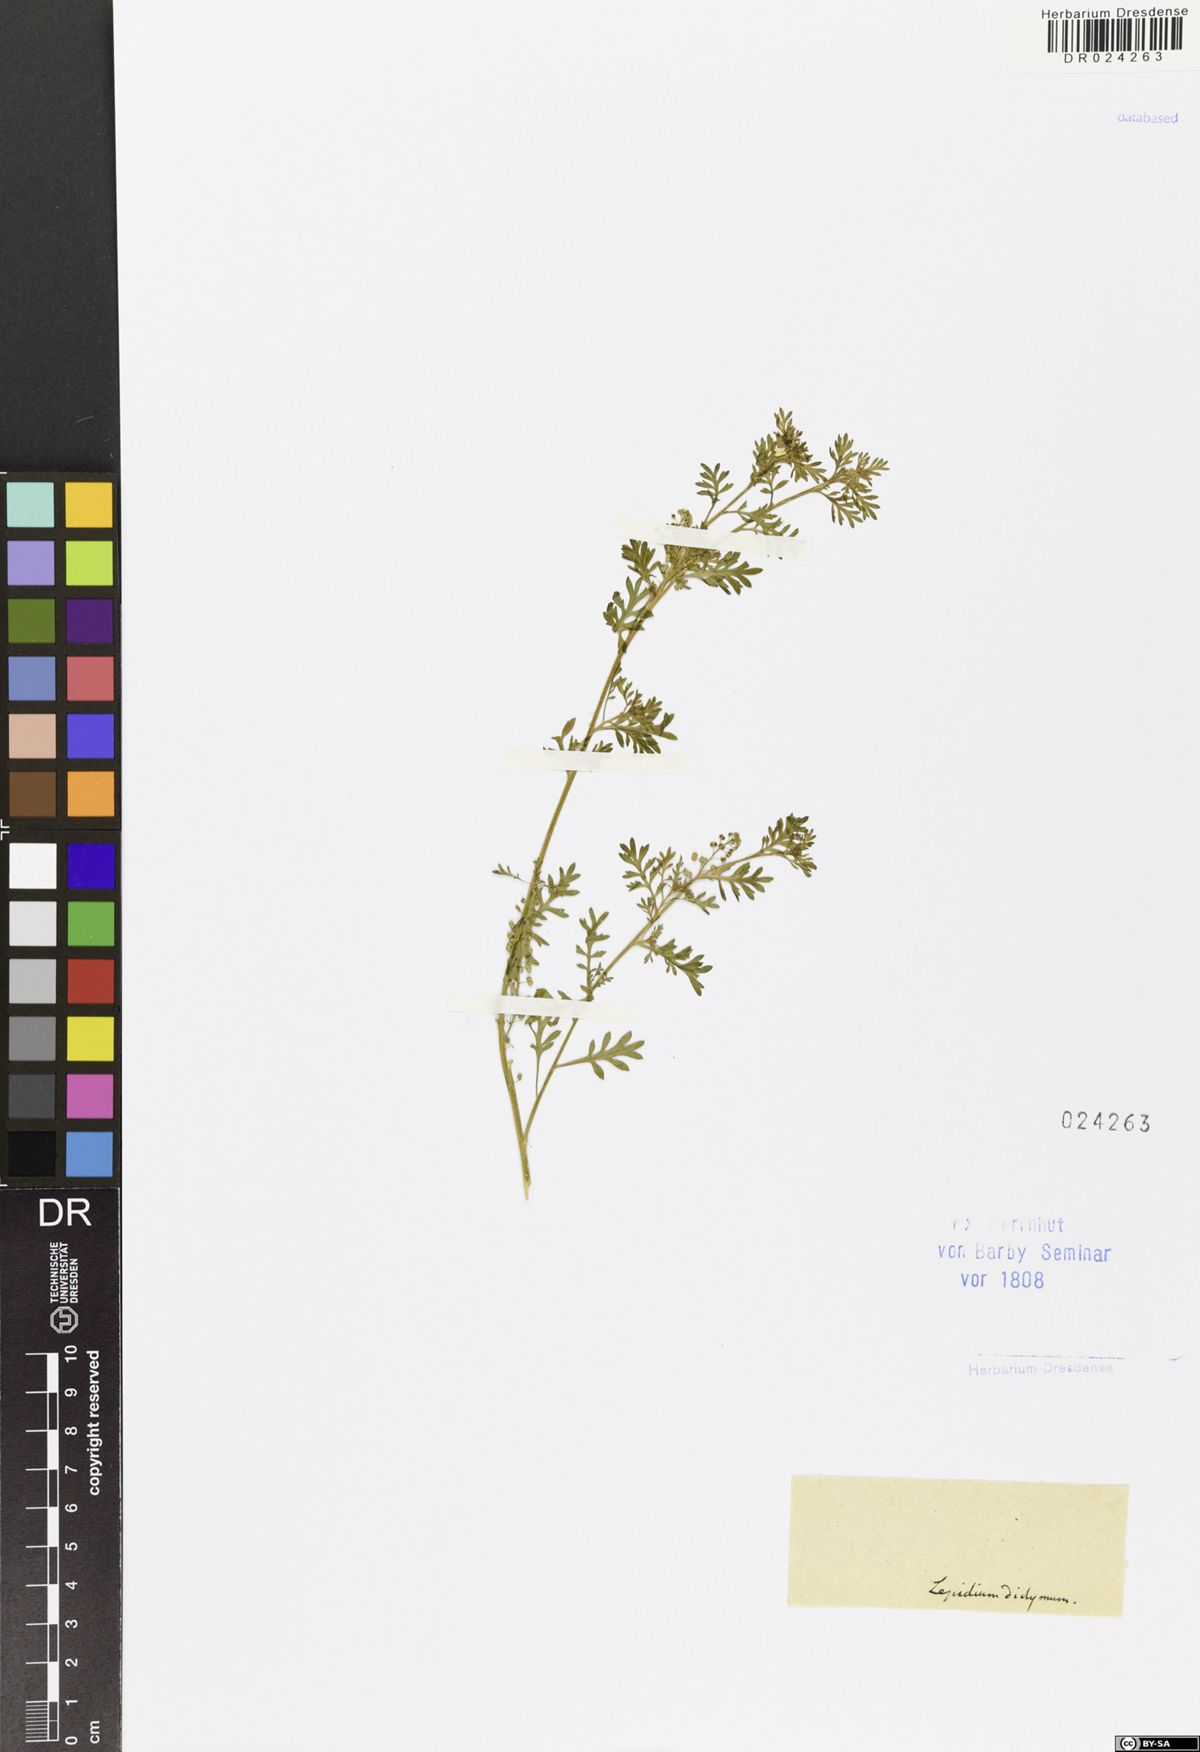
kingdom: Plantae
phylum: Tracheophyta
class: Magnoliopsida
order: Brassicales
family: Brassicaceae
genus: Lepidium
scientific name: Lepidium didymum
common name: Lesser swinecress
